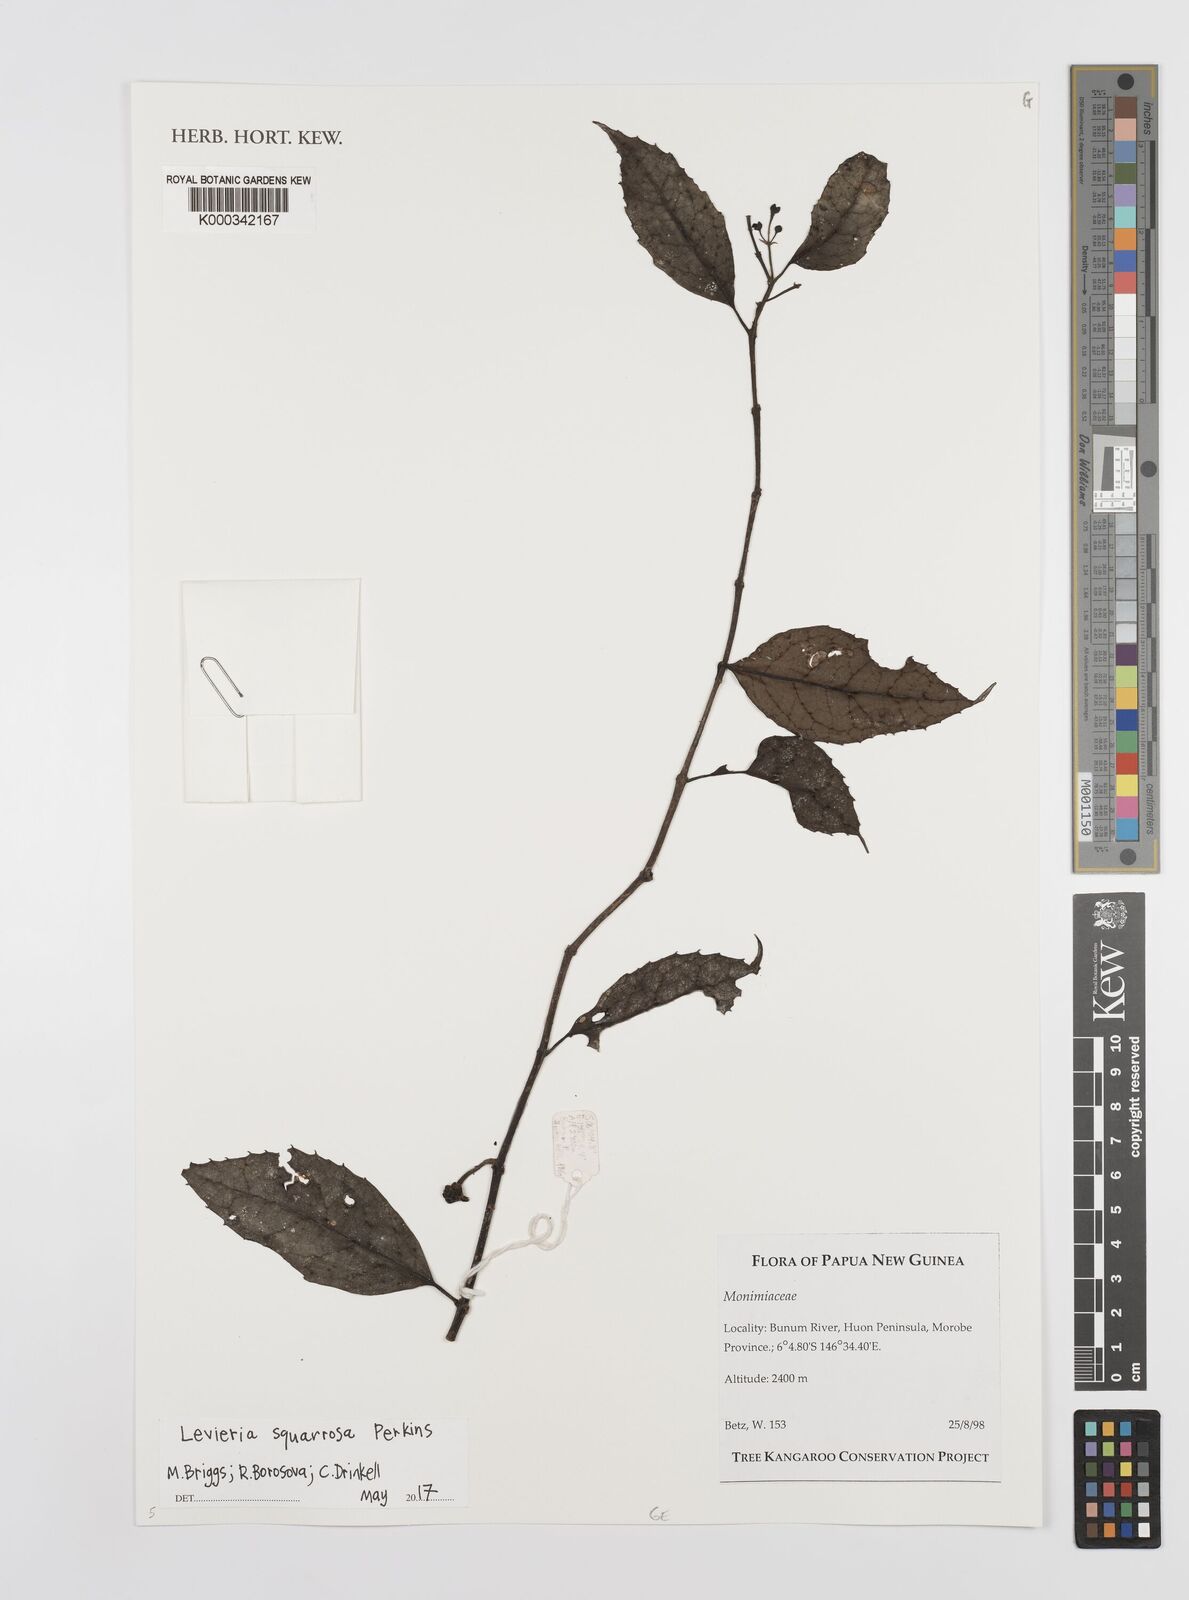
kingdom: Plantae
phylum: Tracheophyta
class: Magnoliopsida
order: Laurales
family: Monimiaceae
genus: Levieria
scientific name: Levieria squarrosa
